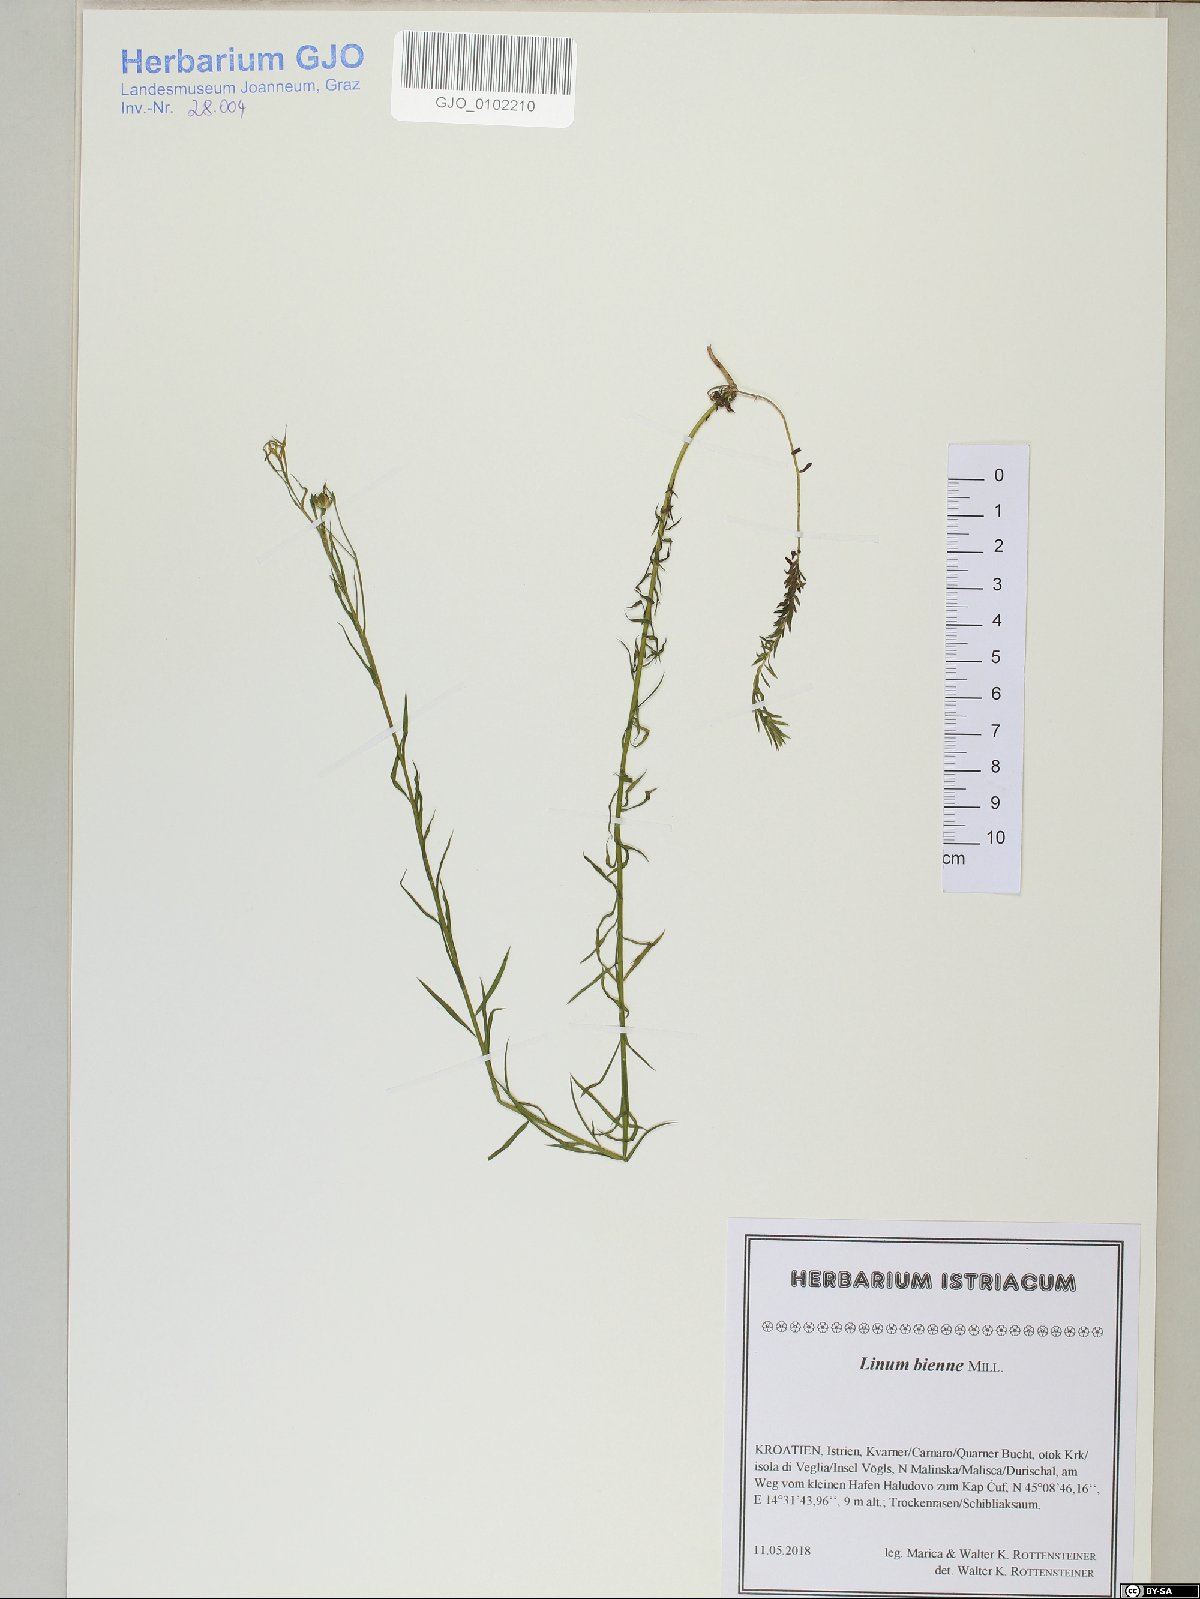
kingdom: Plantae
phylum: Tracheophyta
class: Magnoliopsida
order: Malpighiales
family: Linaceae
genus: Linum
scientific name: Linum bienne
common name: Pale flax
